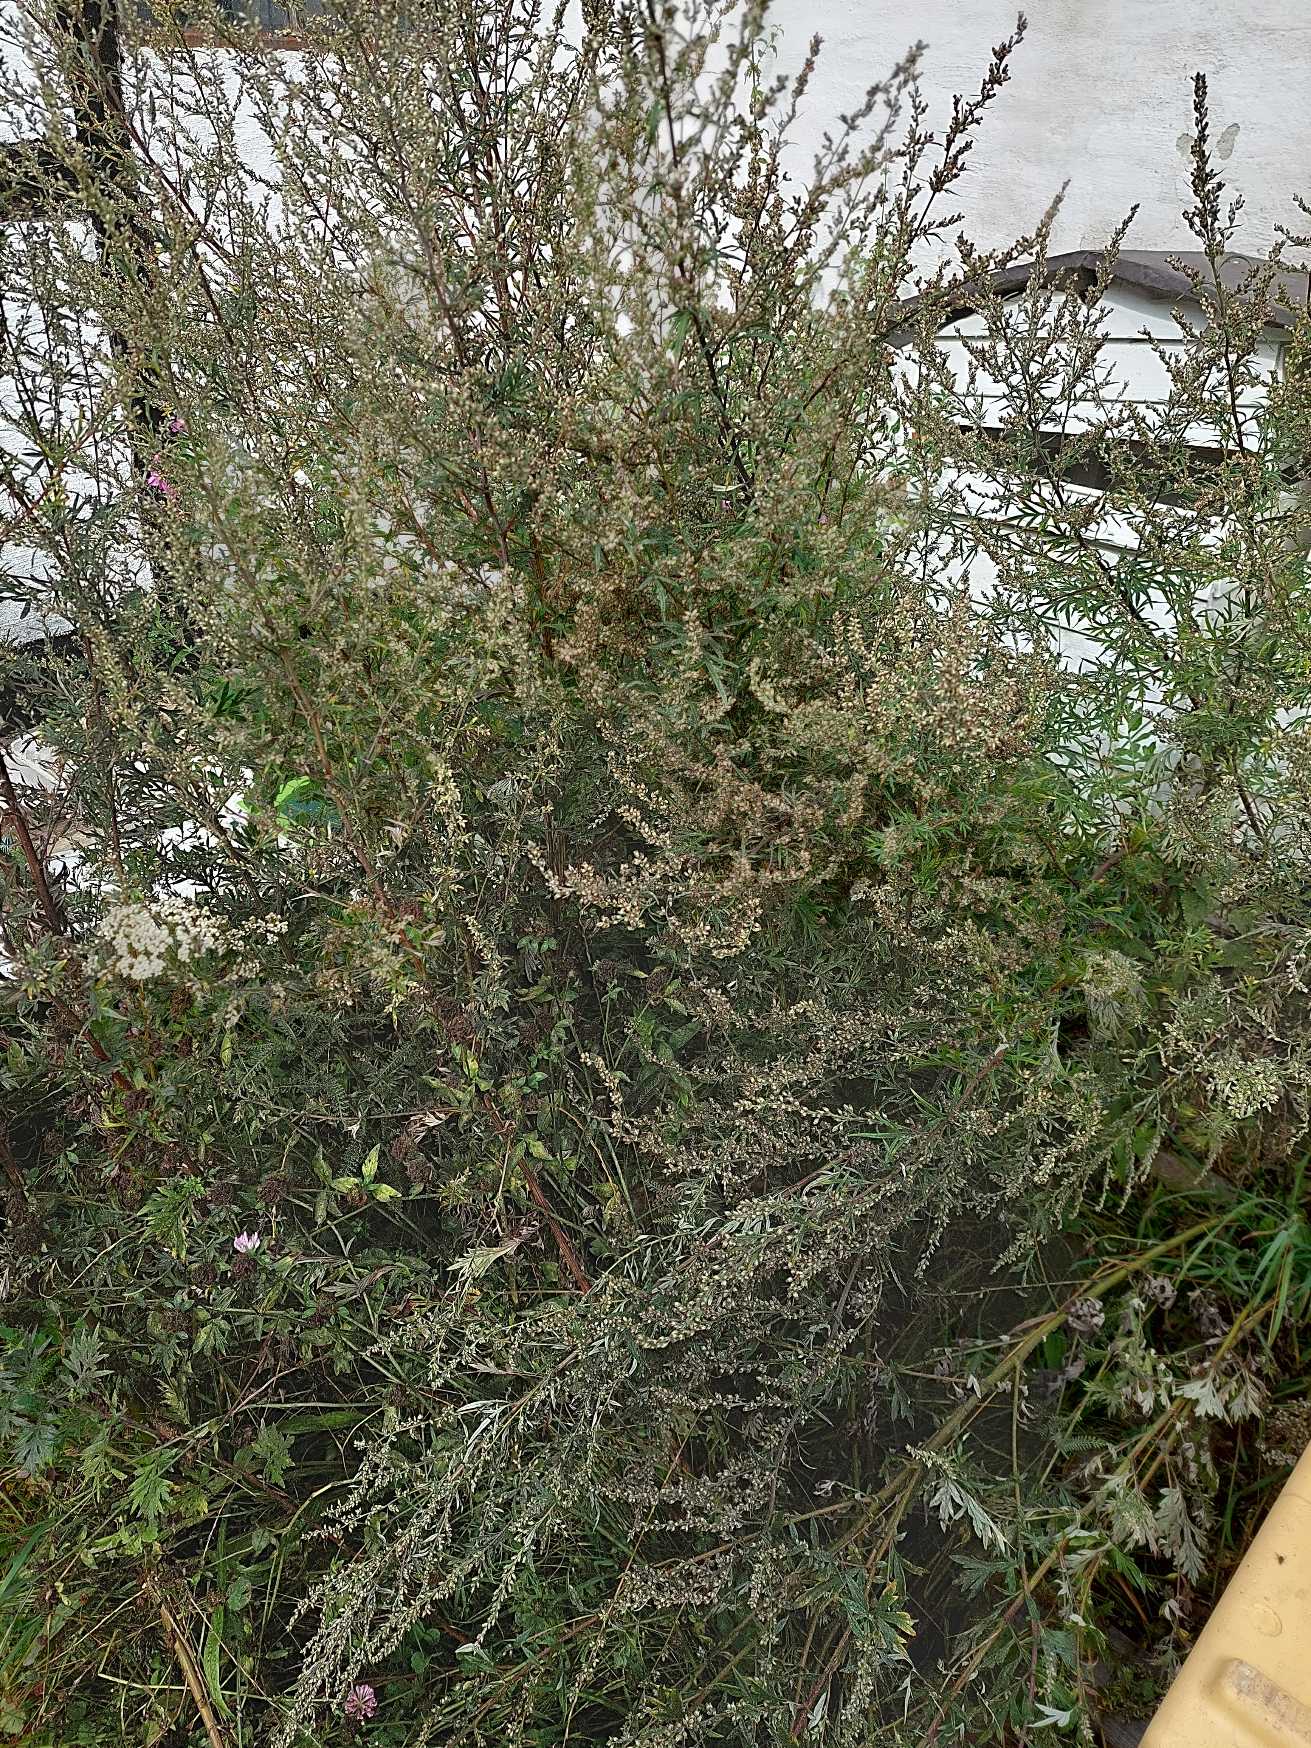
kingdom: Plantae
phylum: Tracheophyta
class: Magnoliopsida
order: Asterales
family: Asteraceae
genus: Artemisia
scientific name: Artemisia vulgaris
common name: Grå-bynke
